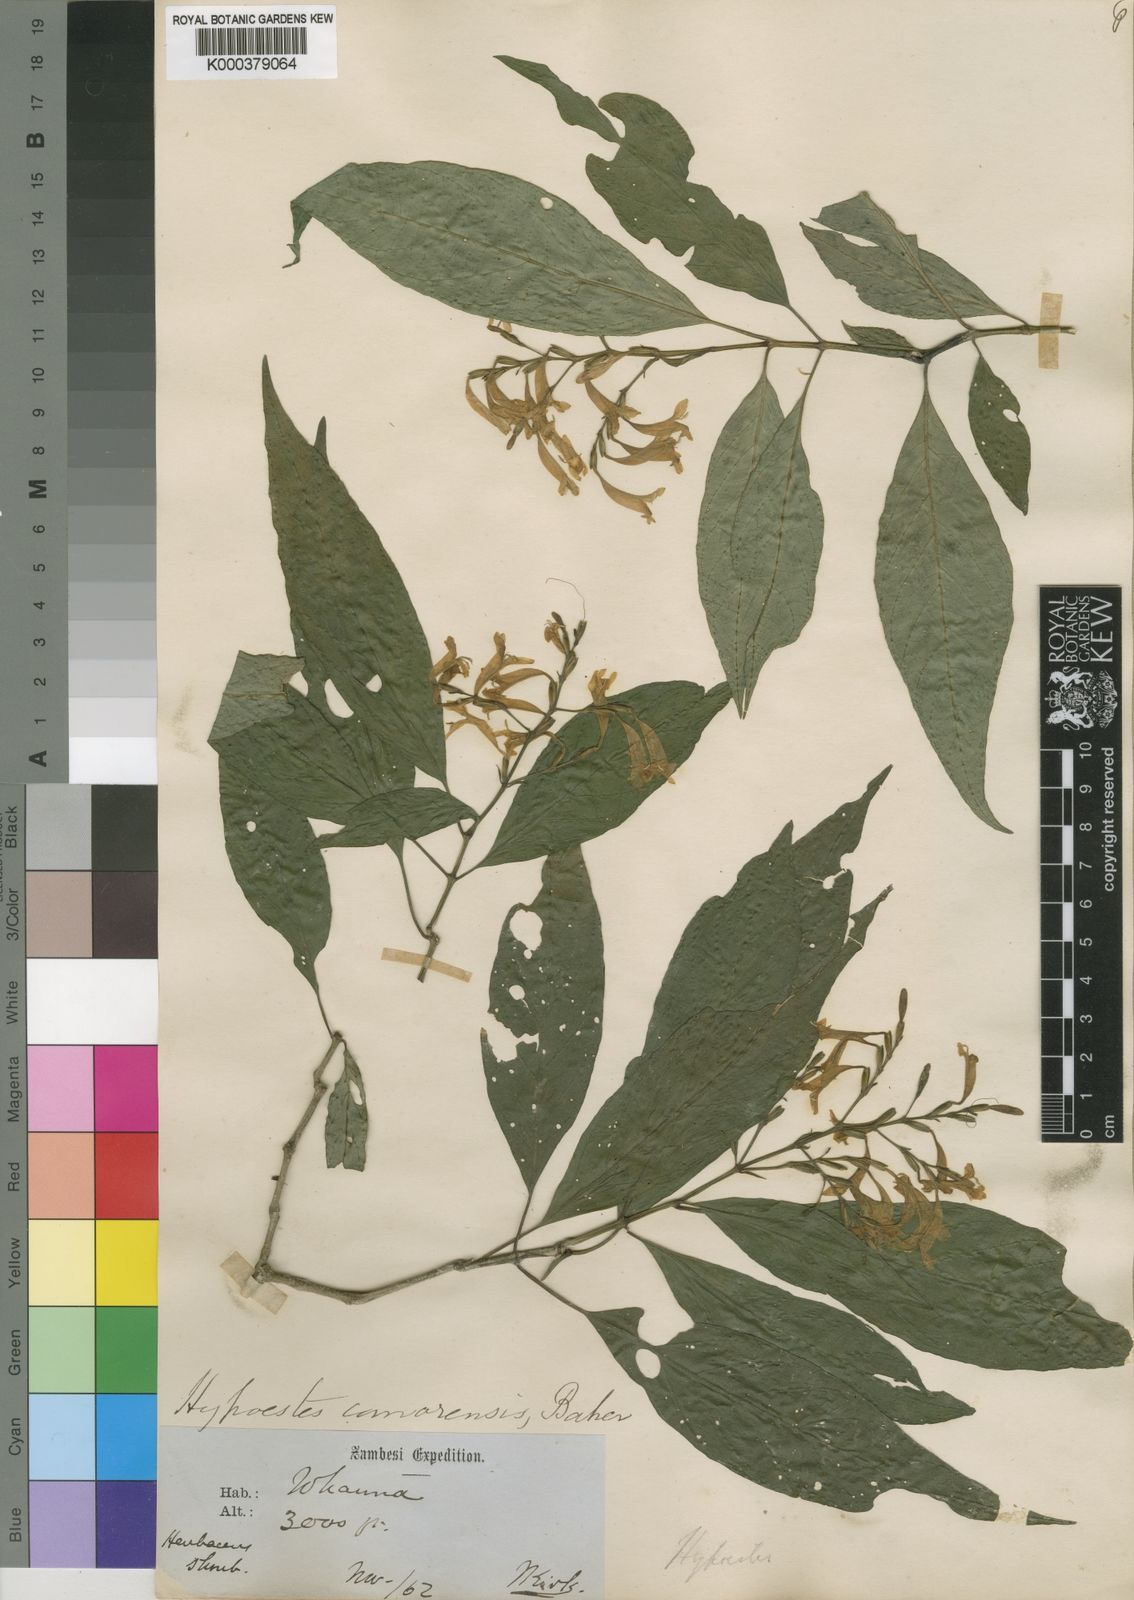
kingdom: Plantae
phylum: Tracheophyta
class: Magnoliopsida
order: Lamiales
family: Acanthaceae
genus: Hypoestes
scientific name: Hypoestes comorensis
